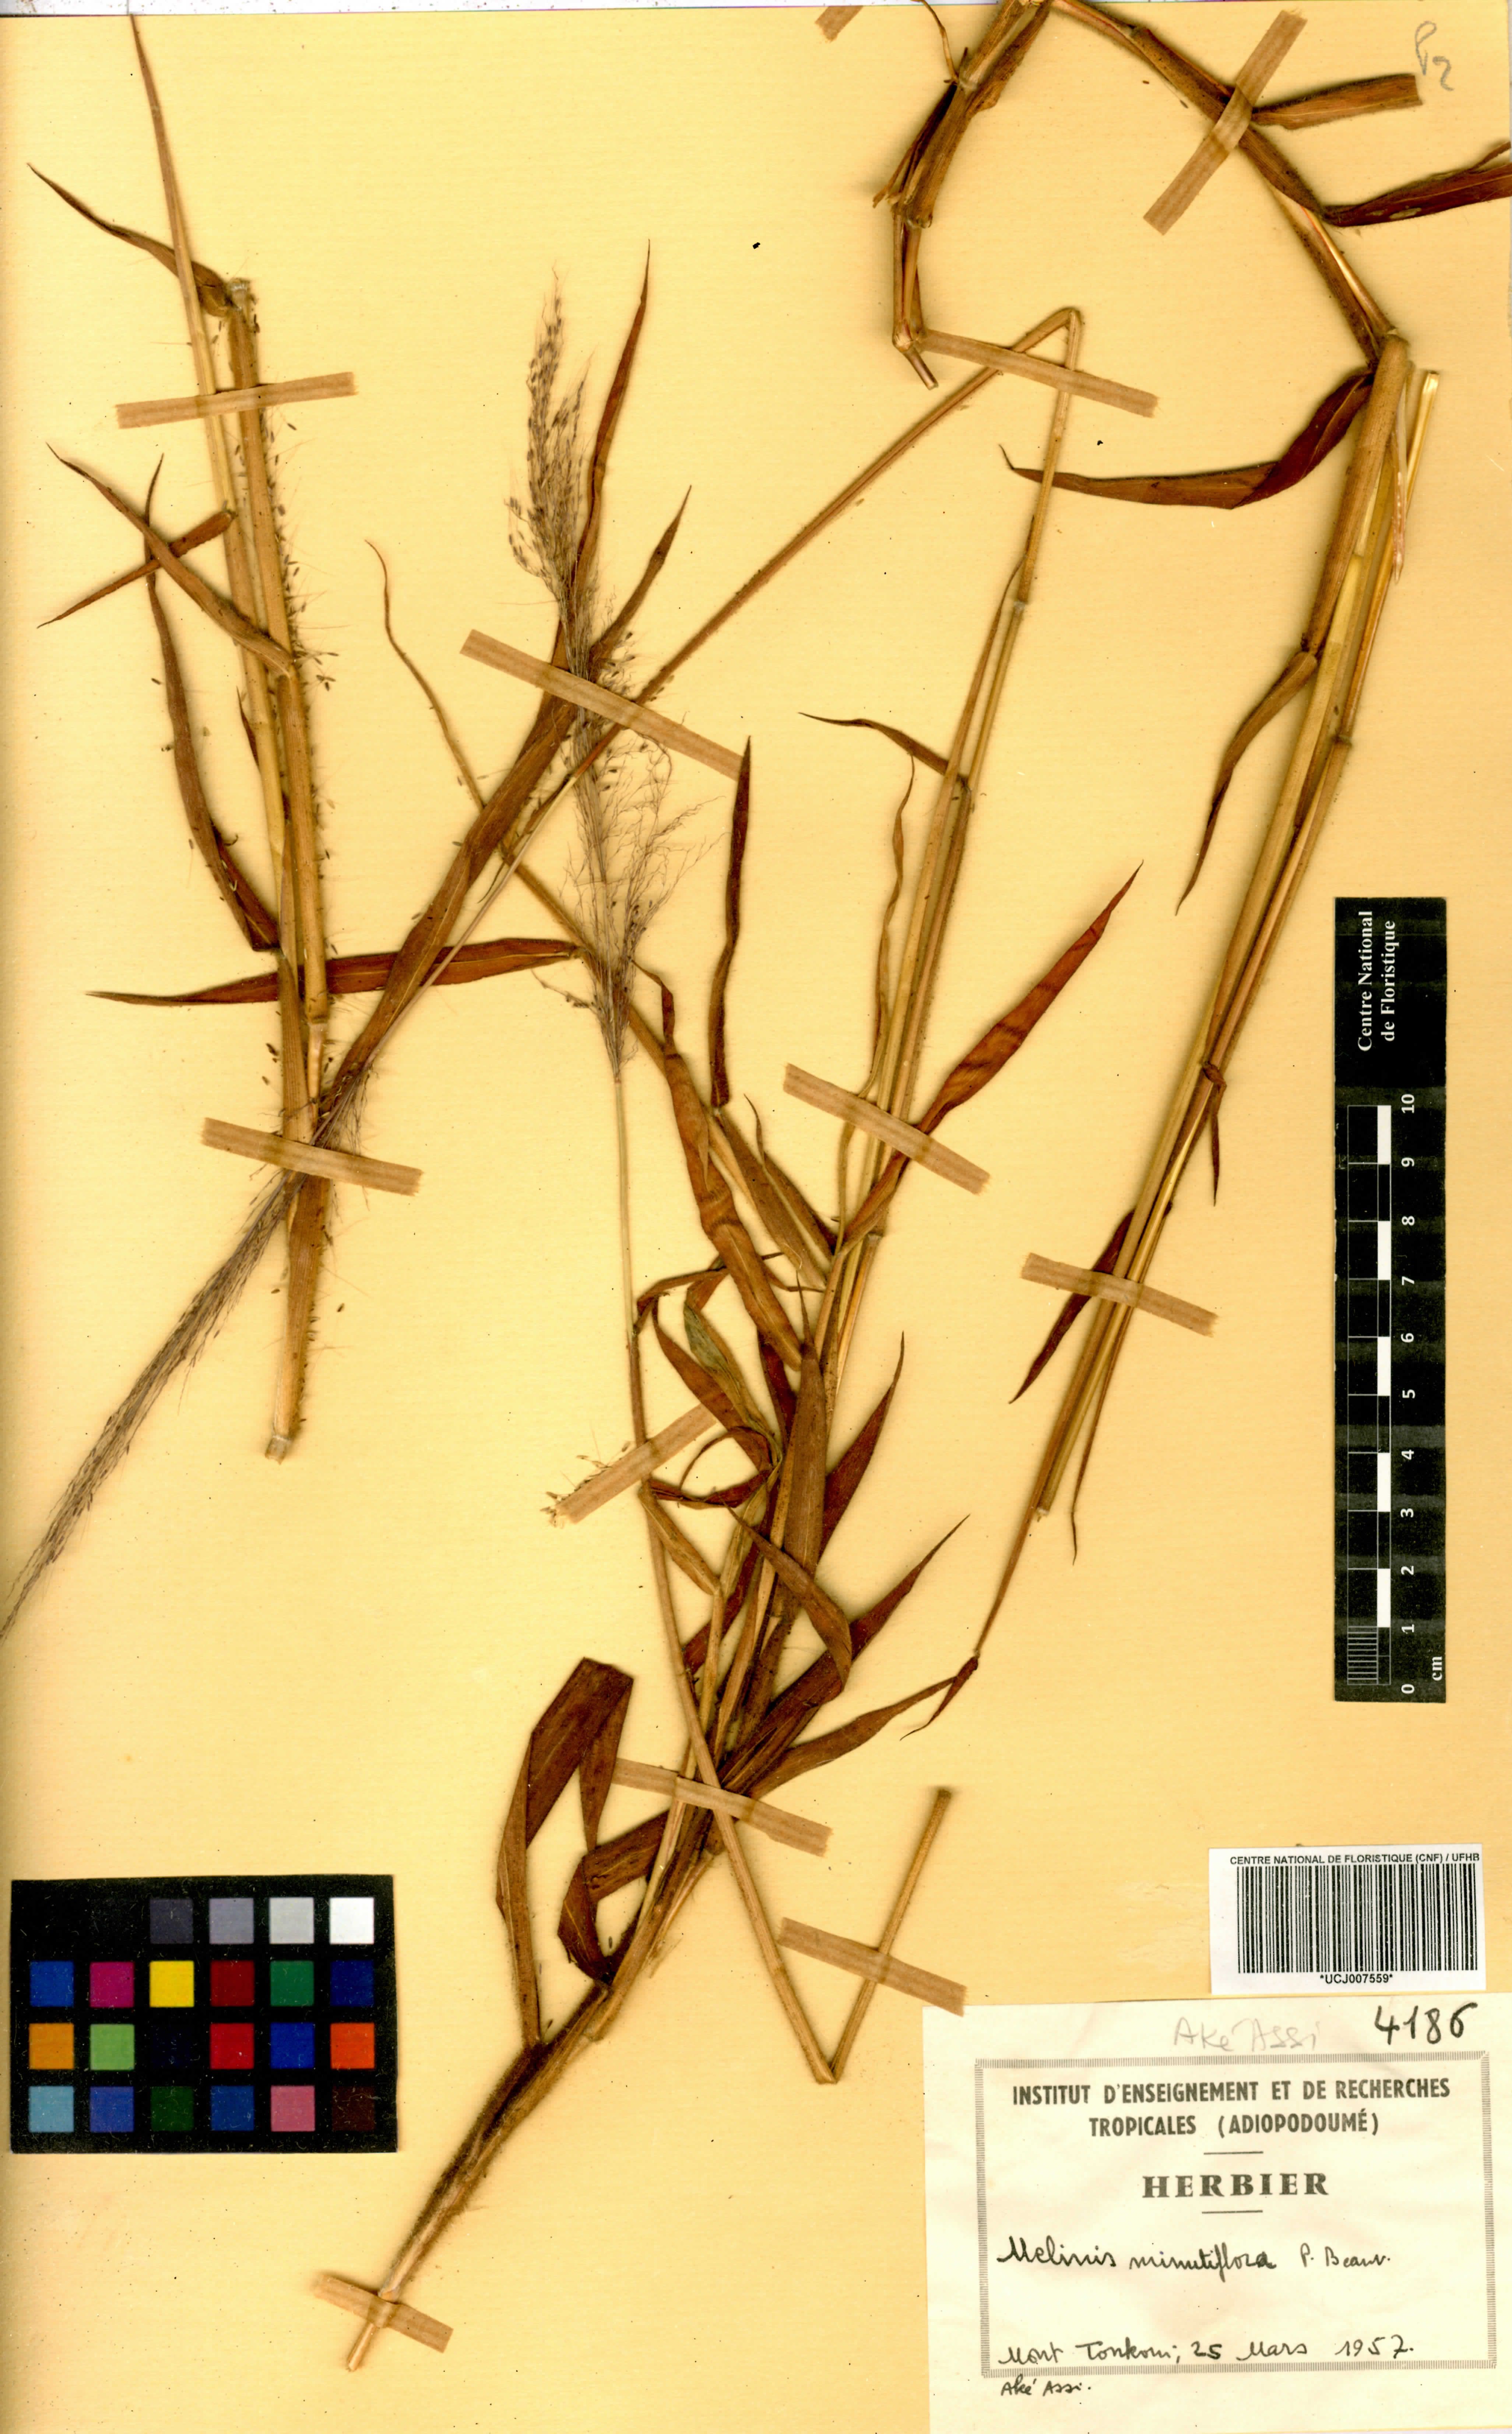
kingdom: Plantae
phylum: Tracheophyta
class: Liliopsida
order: Poales
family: Poaceae
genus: Melinis
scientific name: Melinis minutiflora
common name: Molassesgrass
